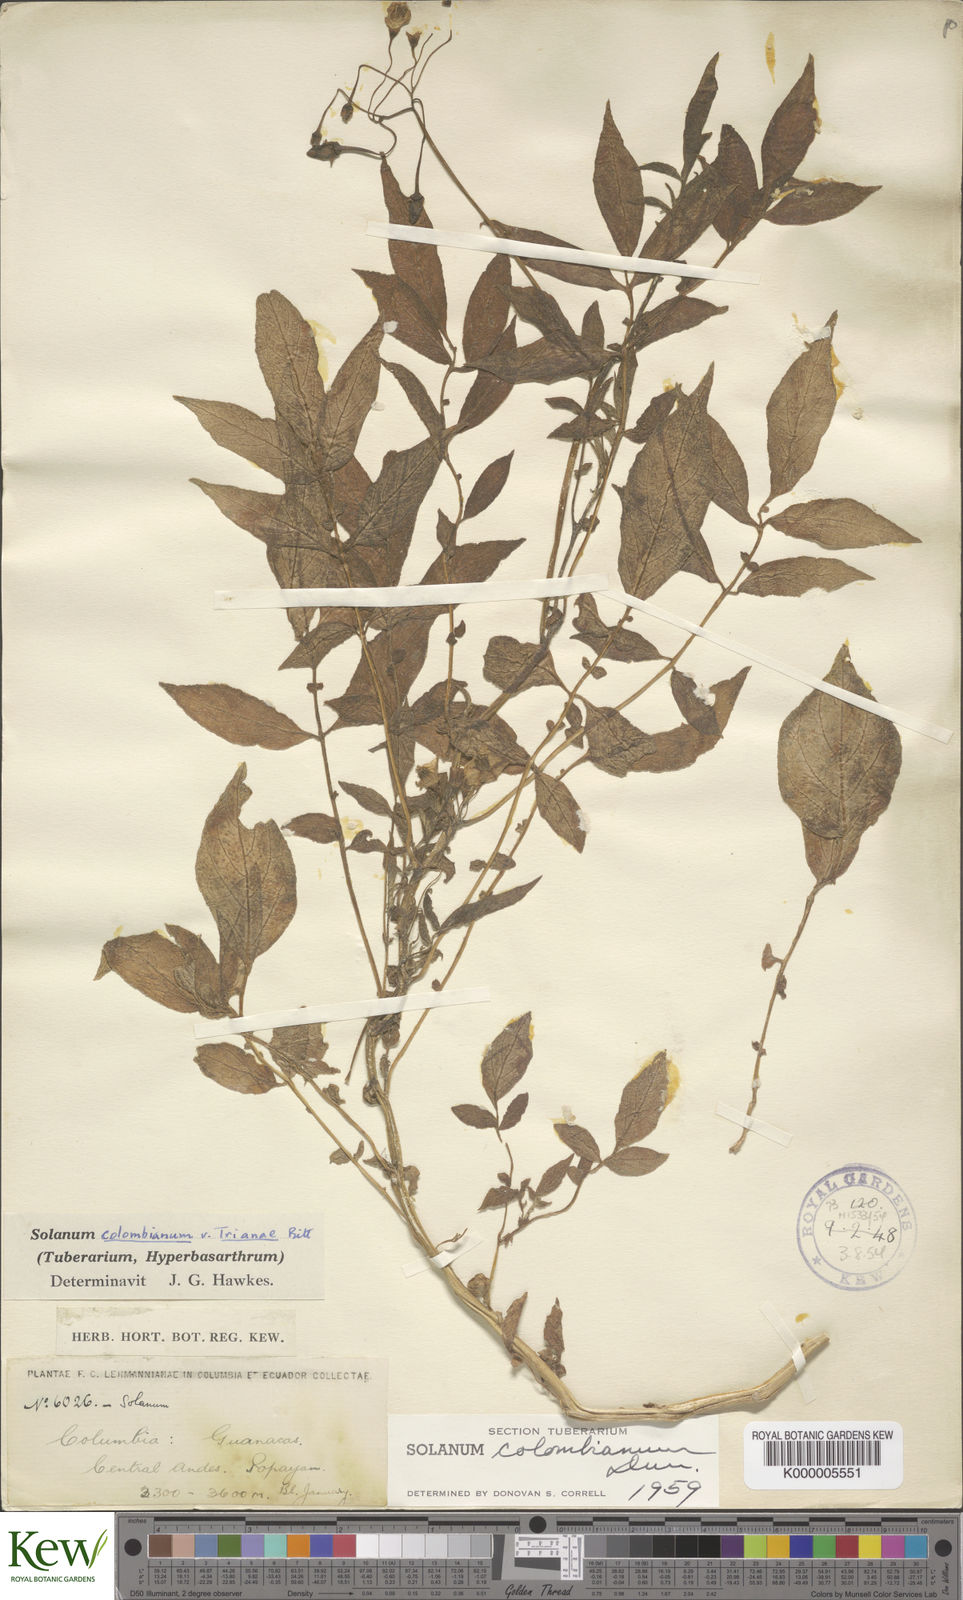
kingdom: Plantae
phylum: Tracheophyta
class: Magnoliopsida
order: Solanales
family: Solanaceae
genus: Solanum
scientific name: Solanum colombianum
